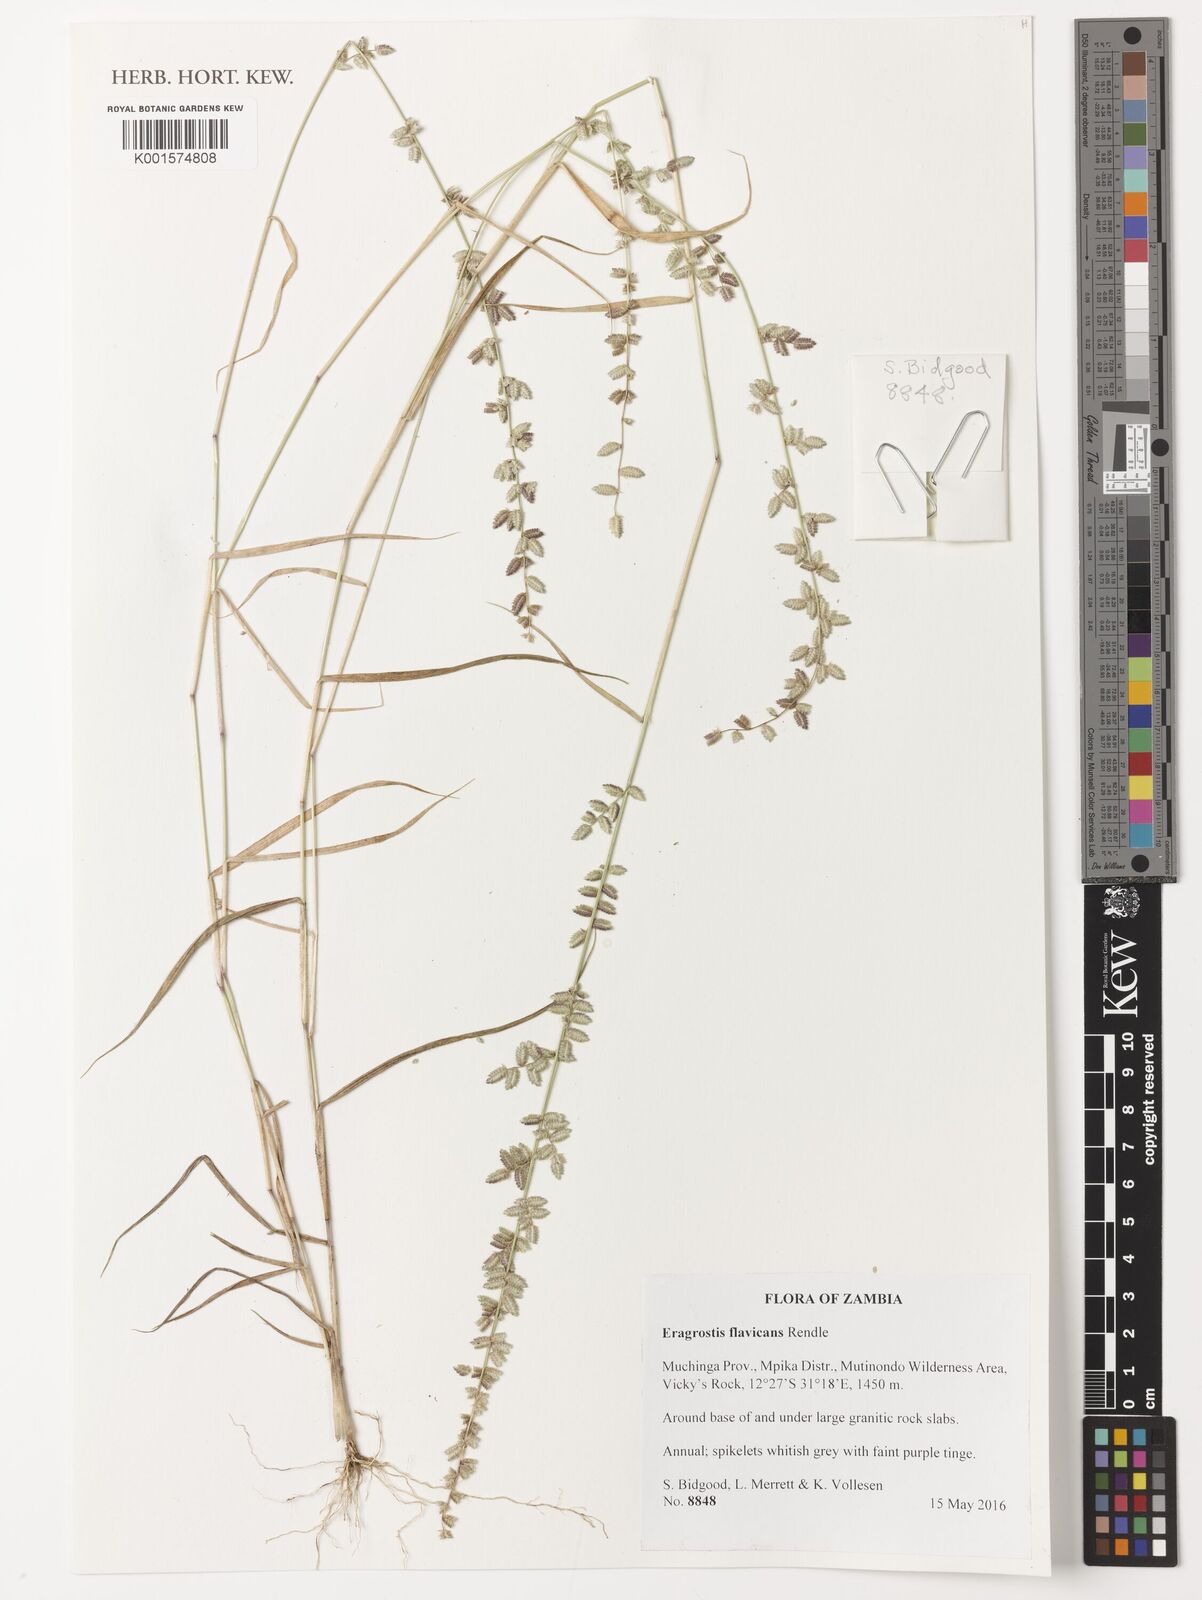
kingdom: Plantae
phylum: Tracheophyta
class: Liliopsida
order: Poales
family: Poaceae
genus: Eragrostis
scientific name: Eragrostis flavicans
